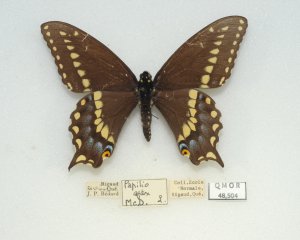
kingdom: Animalia
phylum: Arthropoda
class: Insecta
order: Lepidoptera
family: Papilionidae
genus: Papilio
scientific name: Papilio polyxenes
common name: Black Swallowtail
